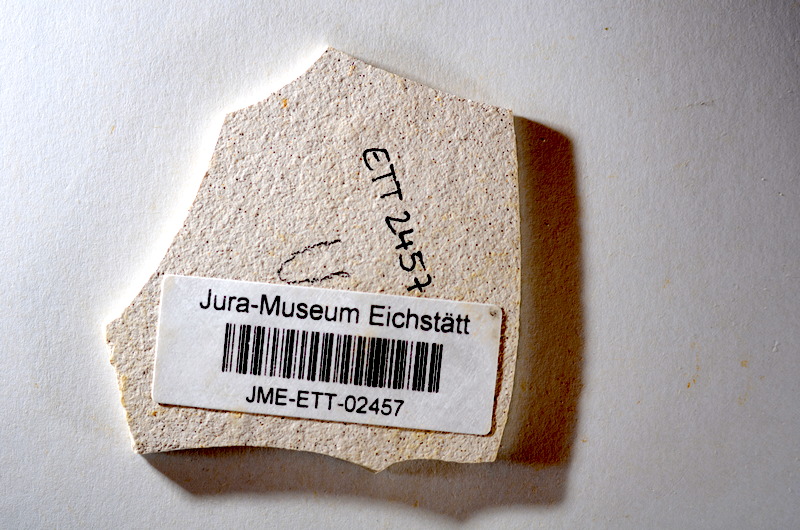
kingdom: Animalia
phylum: Chordata
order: Salmoniformes
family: Orthogonikleithridae
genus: Orthogonikleithrus
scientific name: Orthogonikleithrus hoelli
